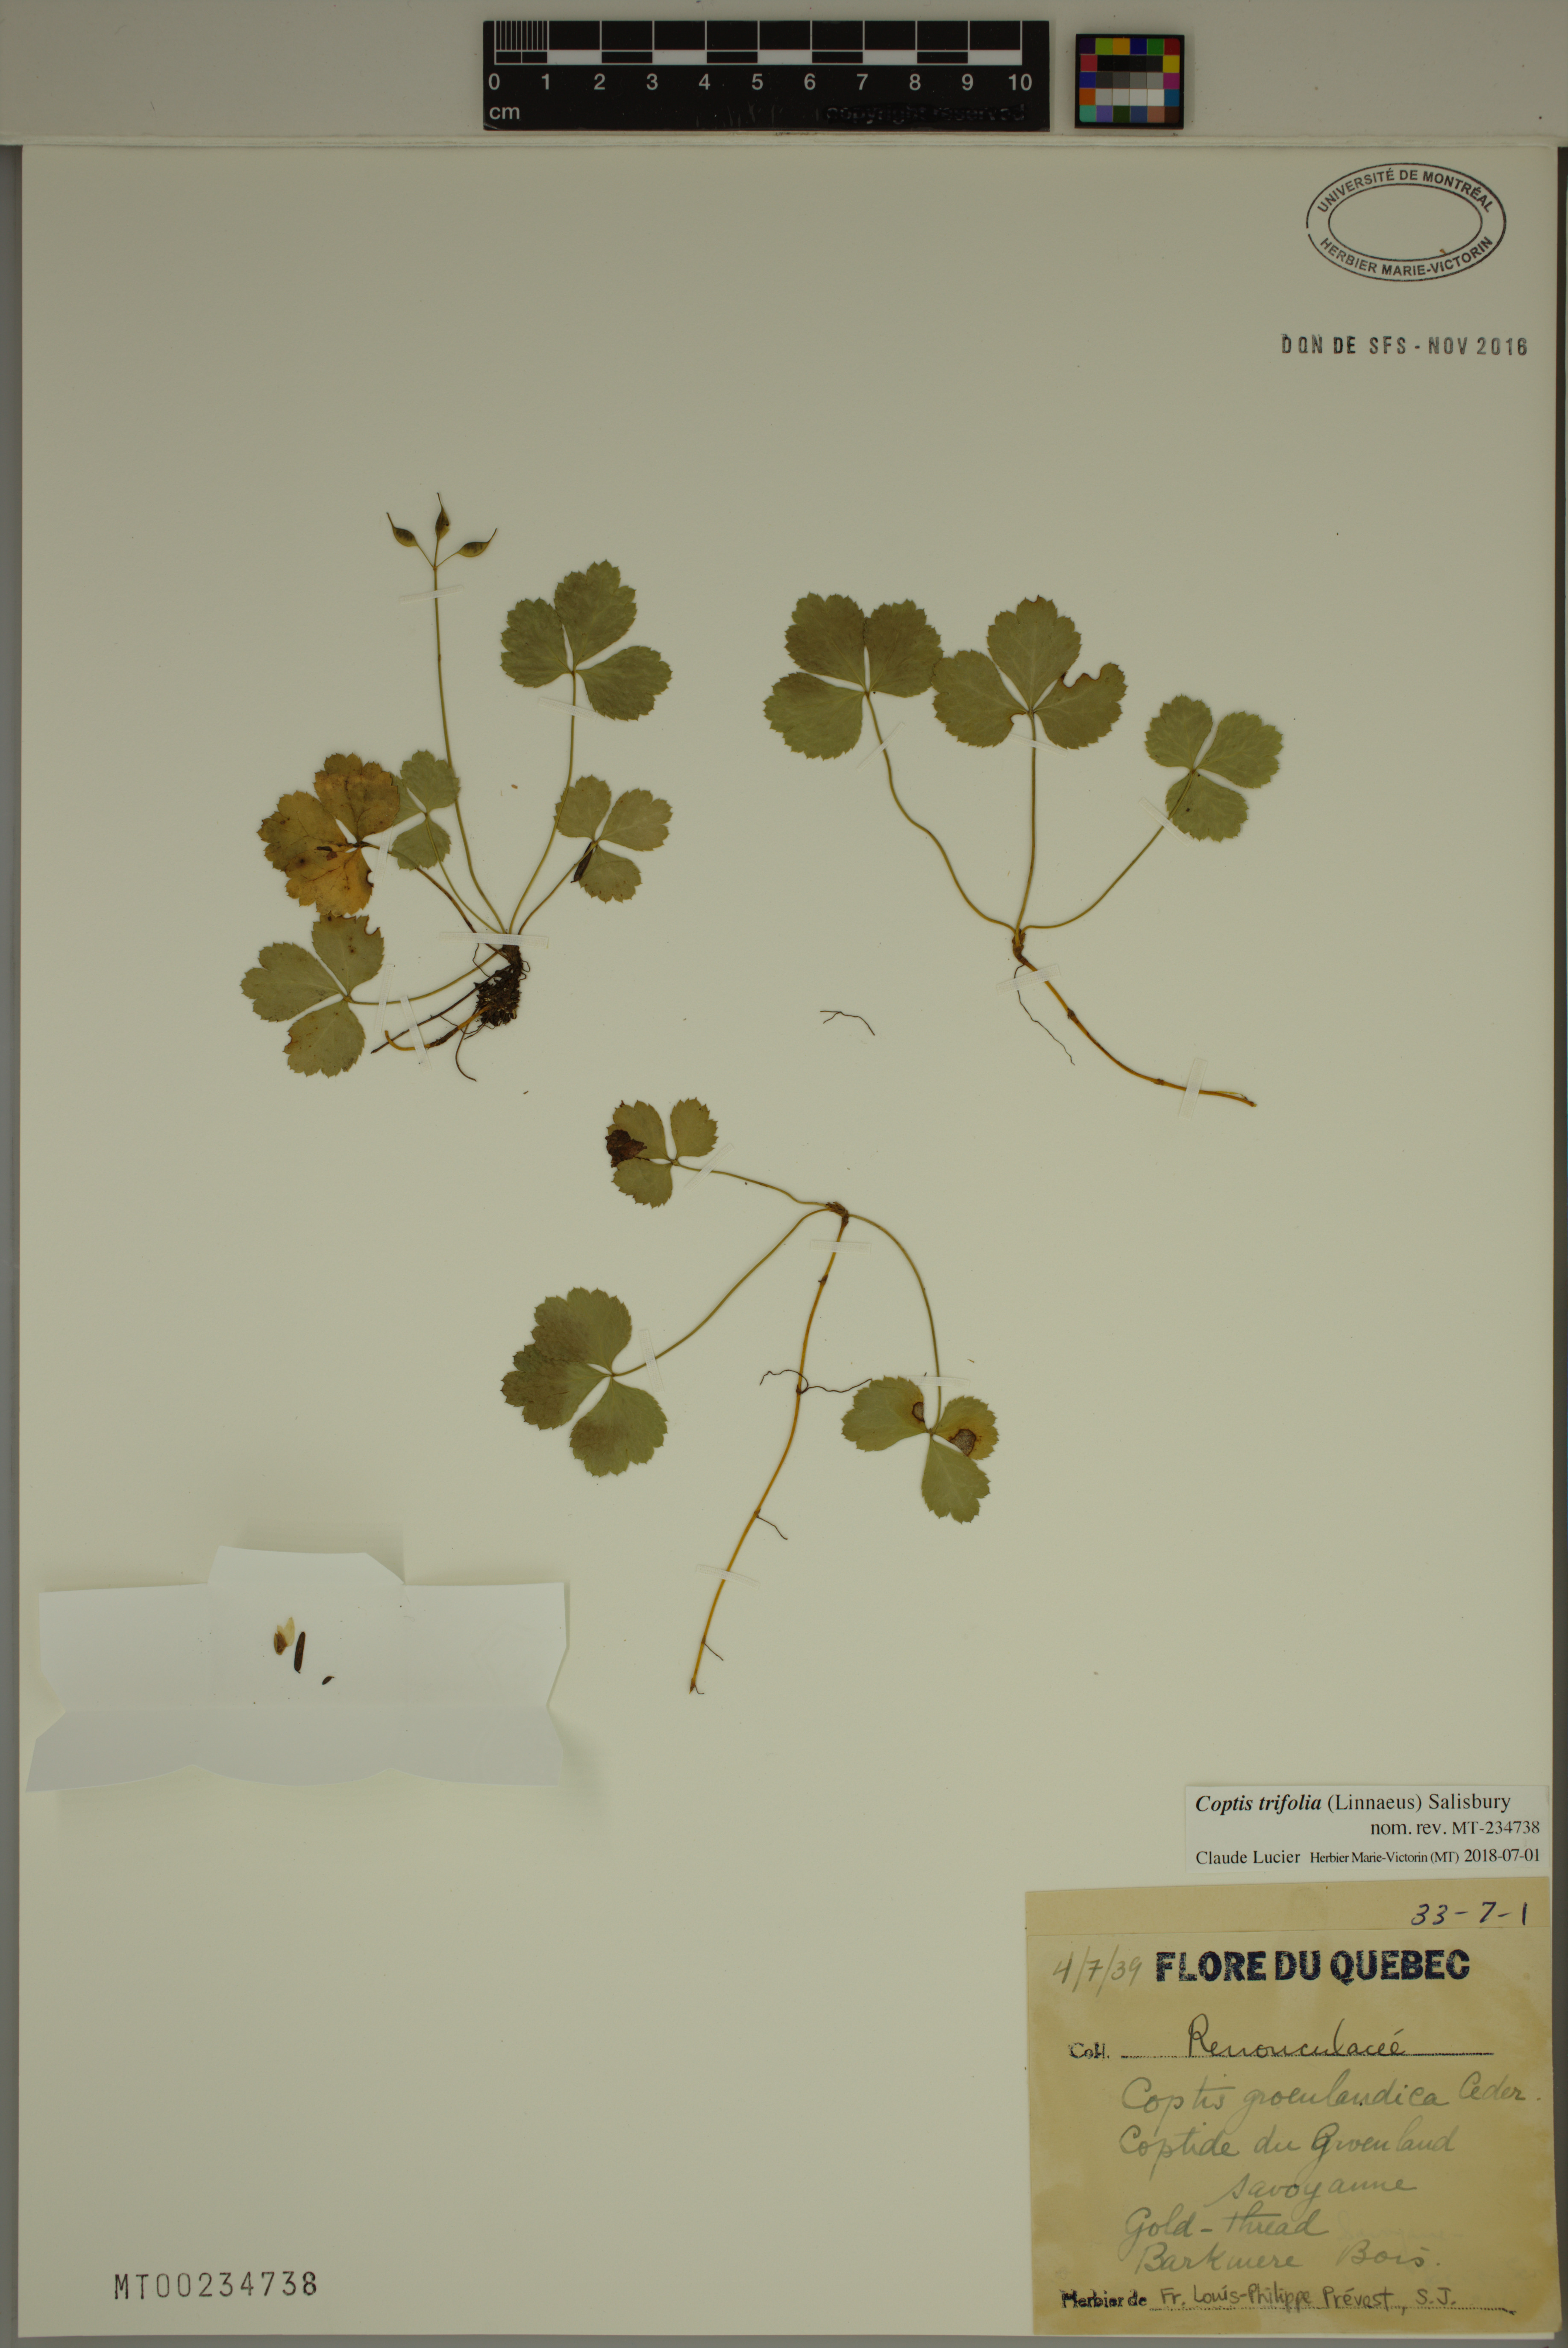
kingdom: Plantae
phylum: Tracheophyta
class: Magnoliopsida
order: Ranunculales
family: Ranunculaceae
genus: Coptis
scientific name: Coptis trifolia
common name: Canker-root
